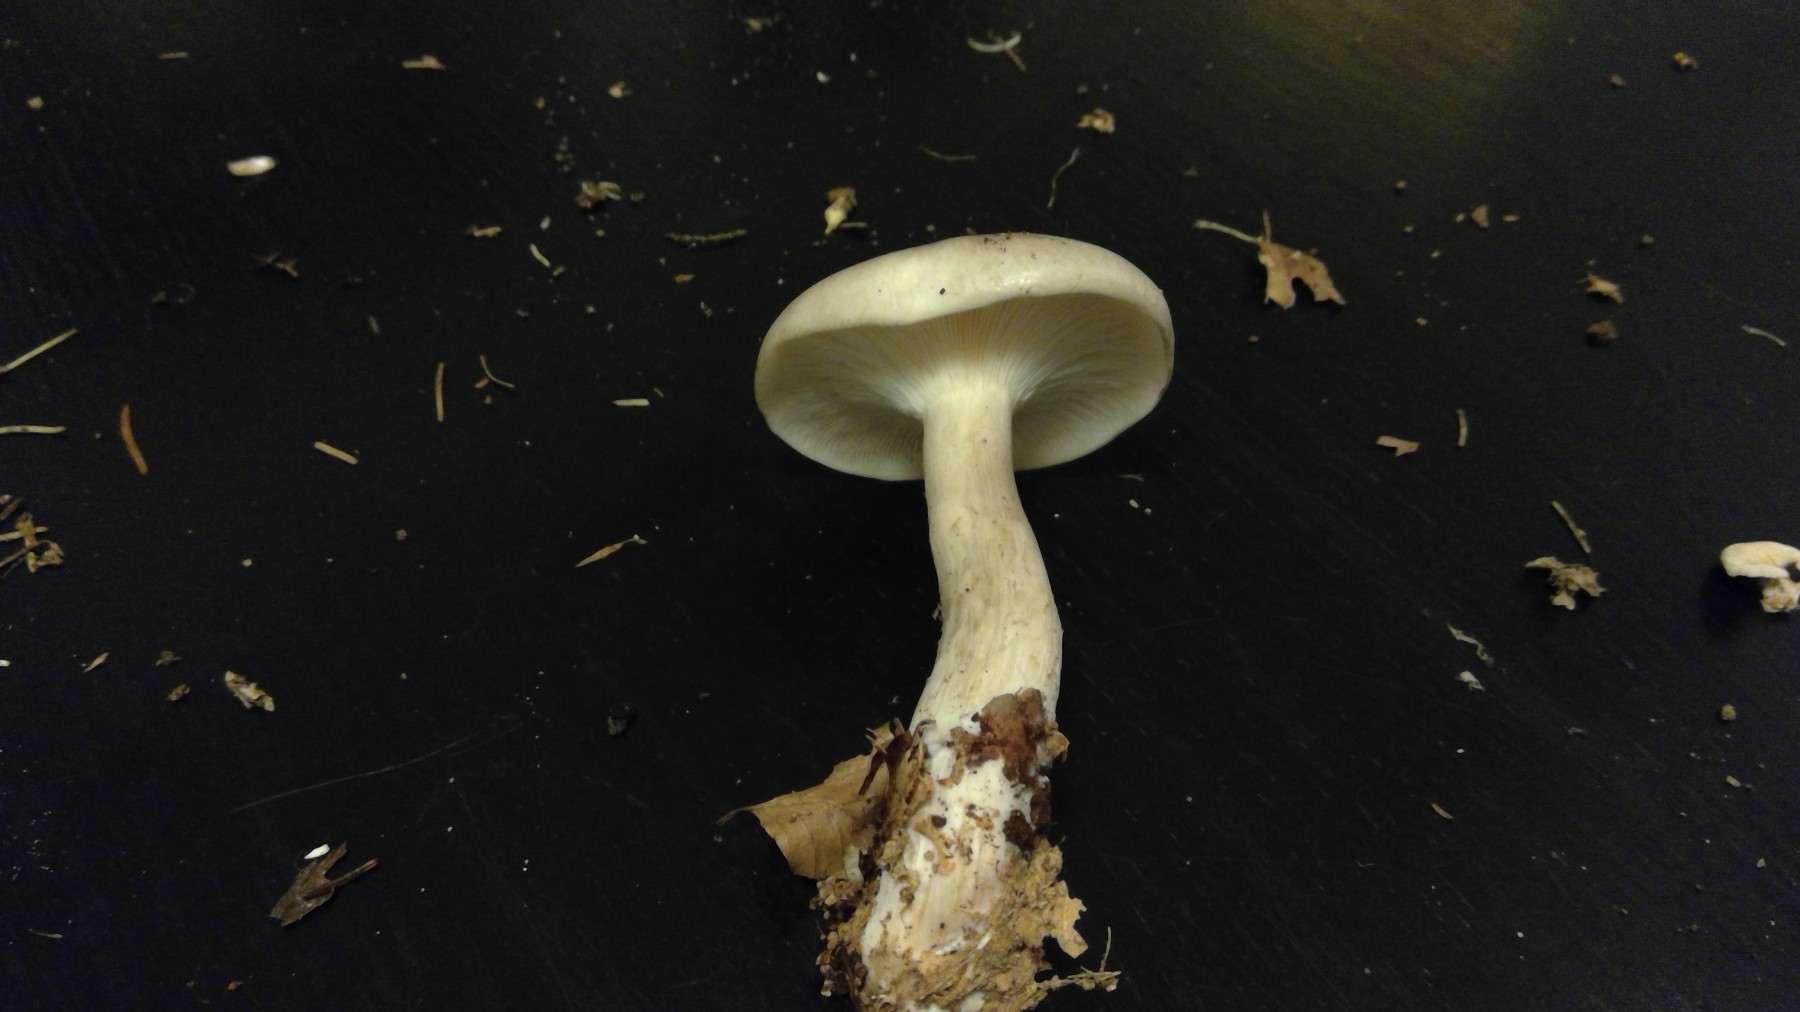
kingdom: Fungi
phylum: Basidiomycota
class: Agaricomycetes
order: Agaricales
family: Tricholomataceae
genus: Clitocybe
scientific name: Clitocybe nebularis
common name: tåge-tragthat
